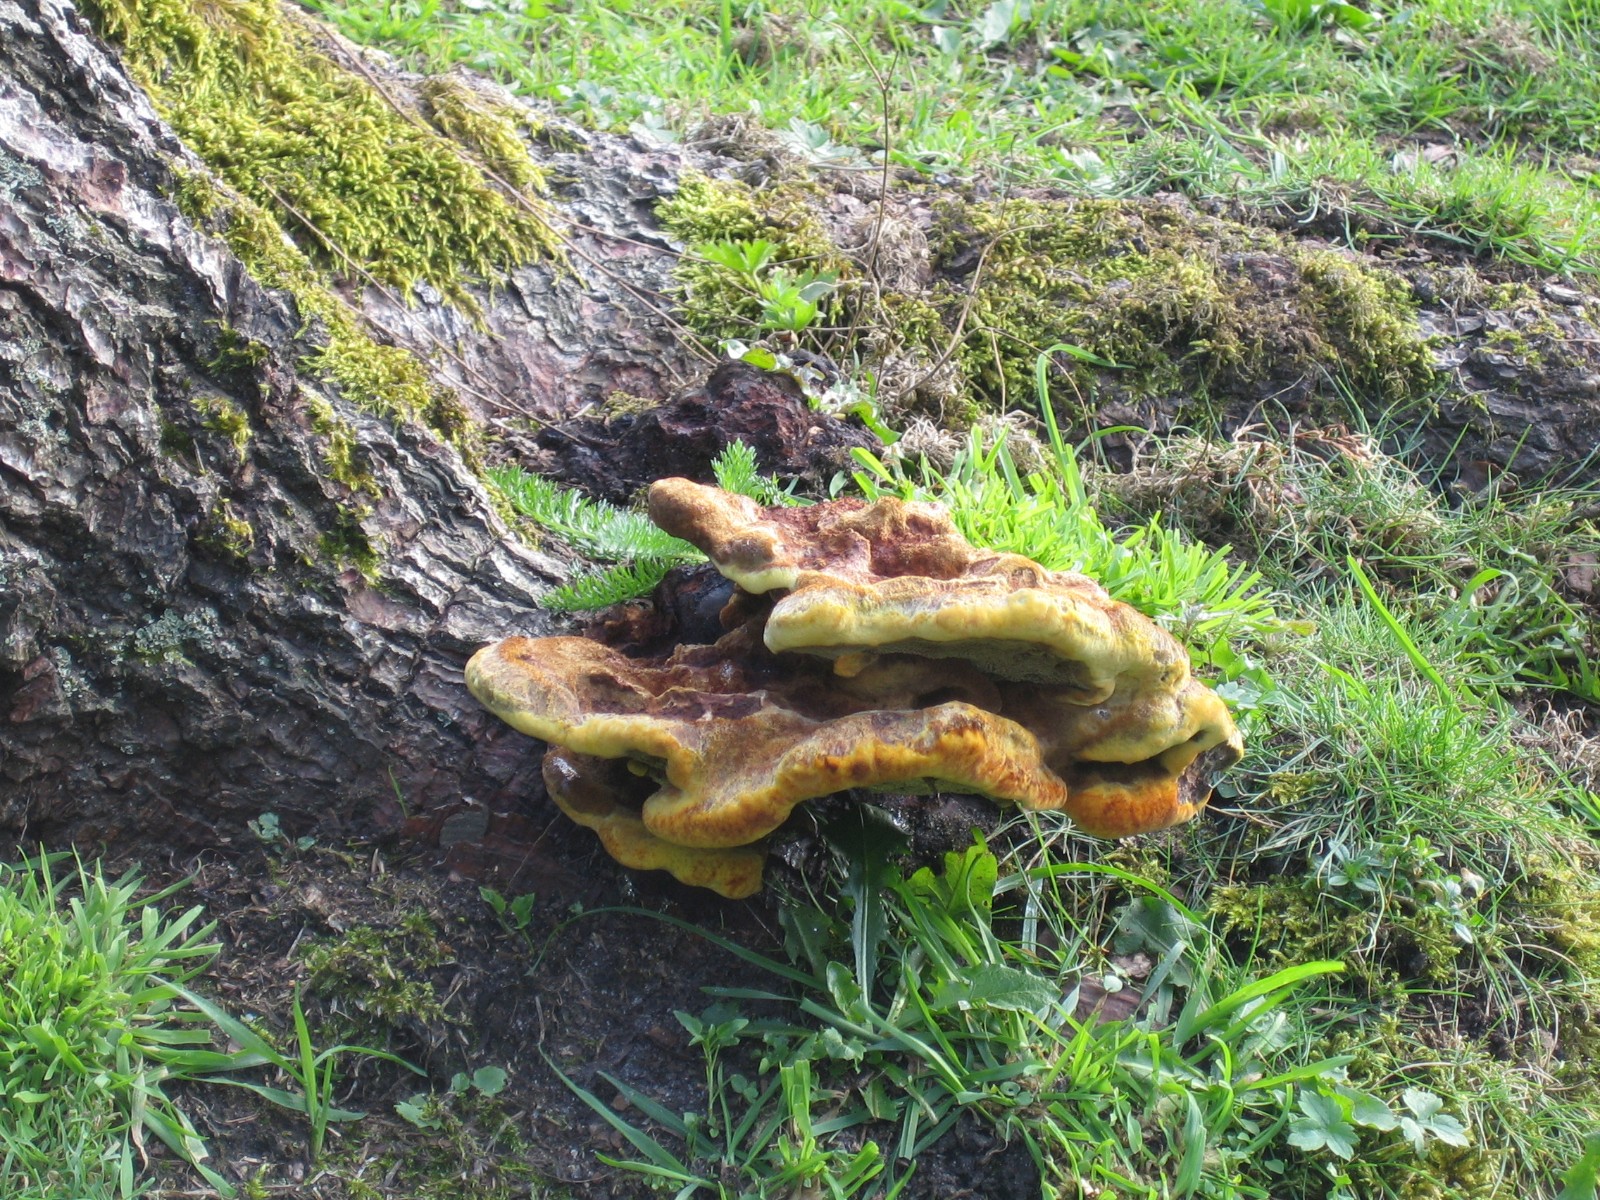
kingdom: Fungi
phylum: Basidiomycota
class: Agaricomycetes
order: Polyporales
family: Laetiporaceae
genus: Phaeolus
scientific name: Phaeolus schweinitzii
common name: brunporesvamp
